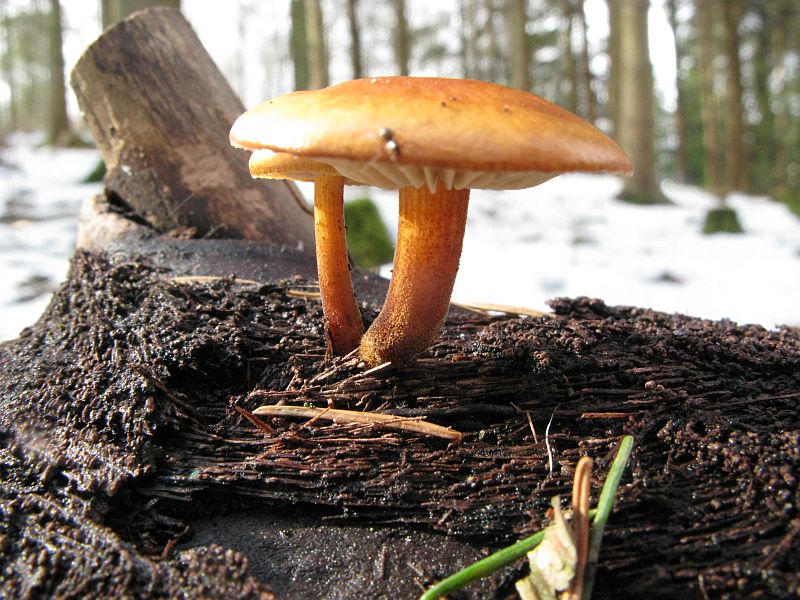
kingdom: Fungi
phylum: Basidiomycota
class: Agaricomycetes
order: Agaricales
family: Physalacriaceae
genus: Flammulina
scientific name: Flammulina velutipes
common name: gul fløjlsfod
